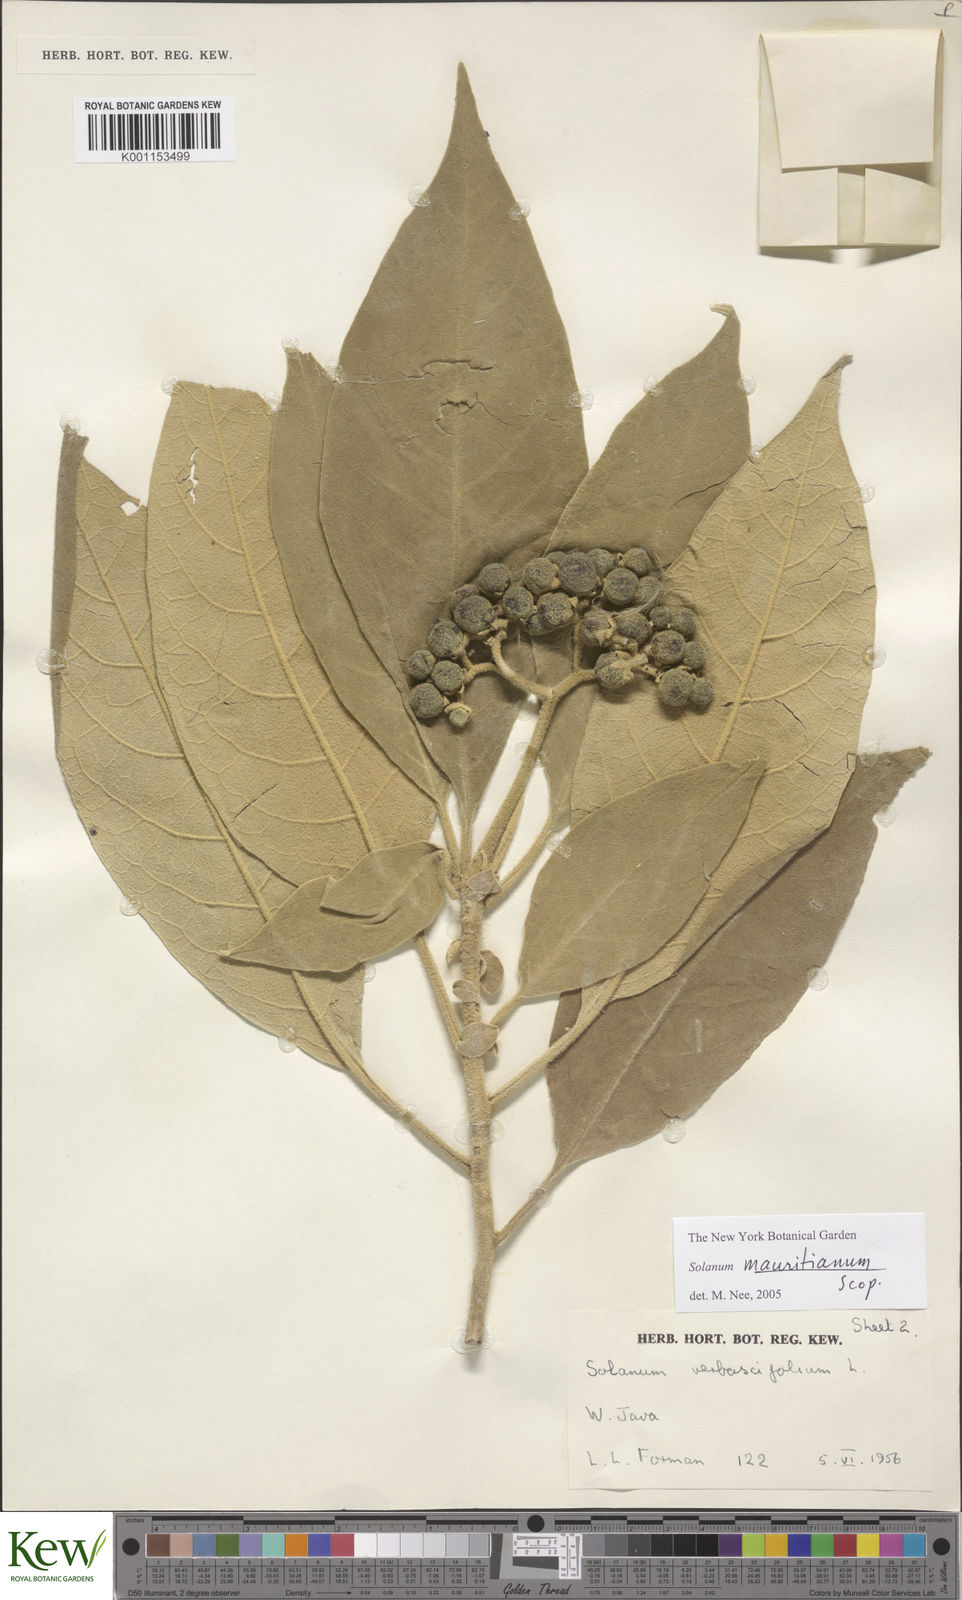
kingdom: Plantae
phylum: Tracheophyta
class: Magnoliopsida
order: Solanales
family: Solanaceae
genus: Solanum
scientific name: Solanum mauritianum
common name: Earleaf nightshade
